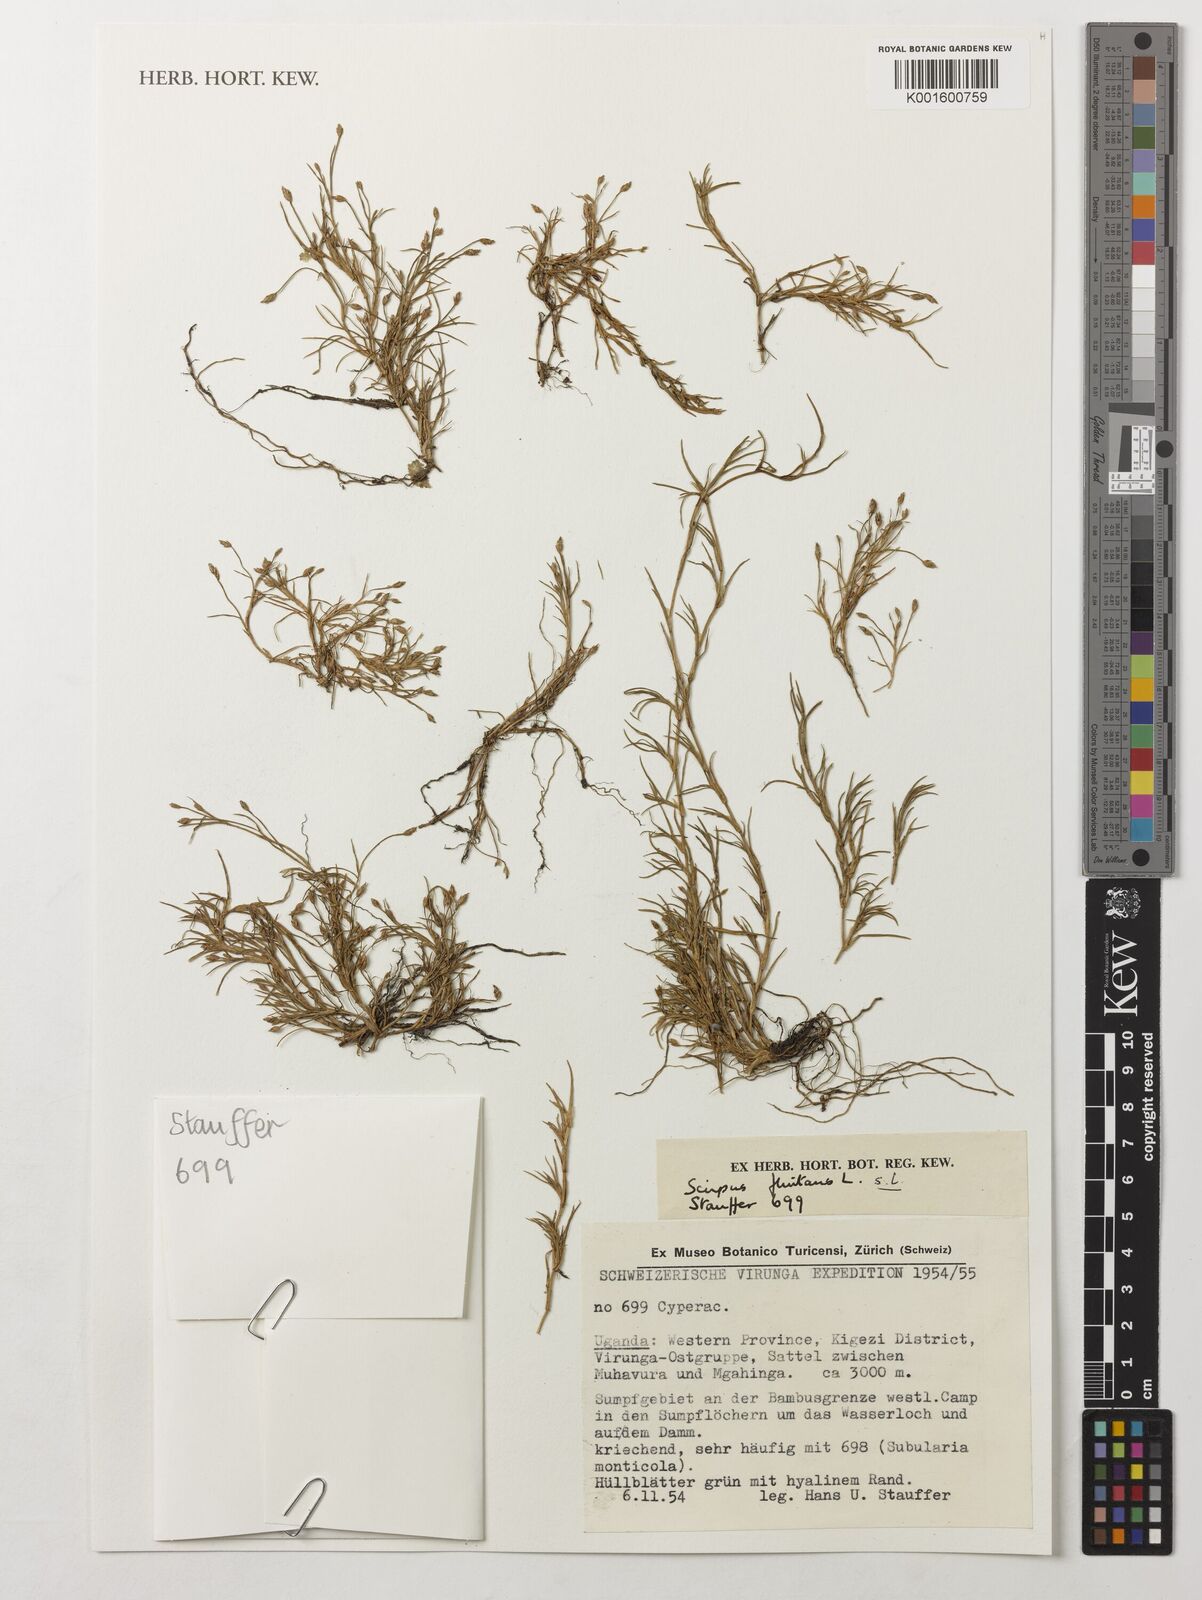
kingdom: Plantae
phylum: Tracheophyta
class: Liliopsida
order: Poales
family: Cyperaceae
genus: Isolepis
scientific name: Isolepis fluitans
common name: Floating club-rush
